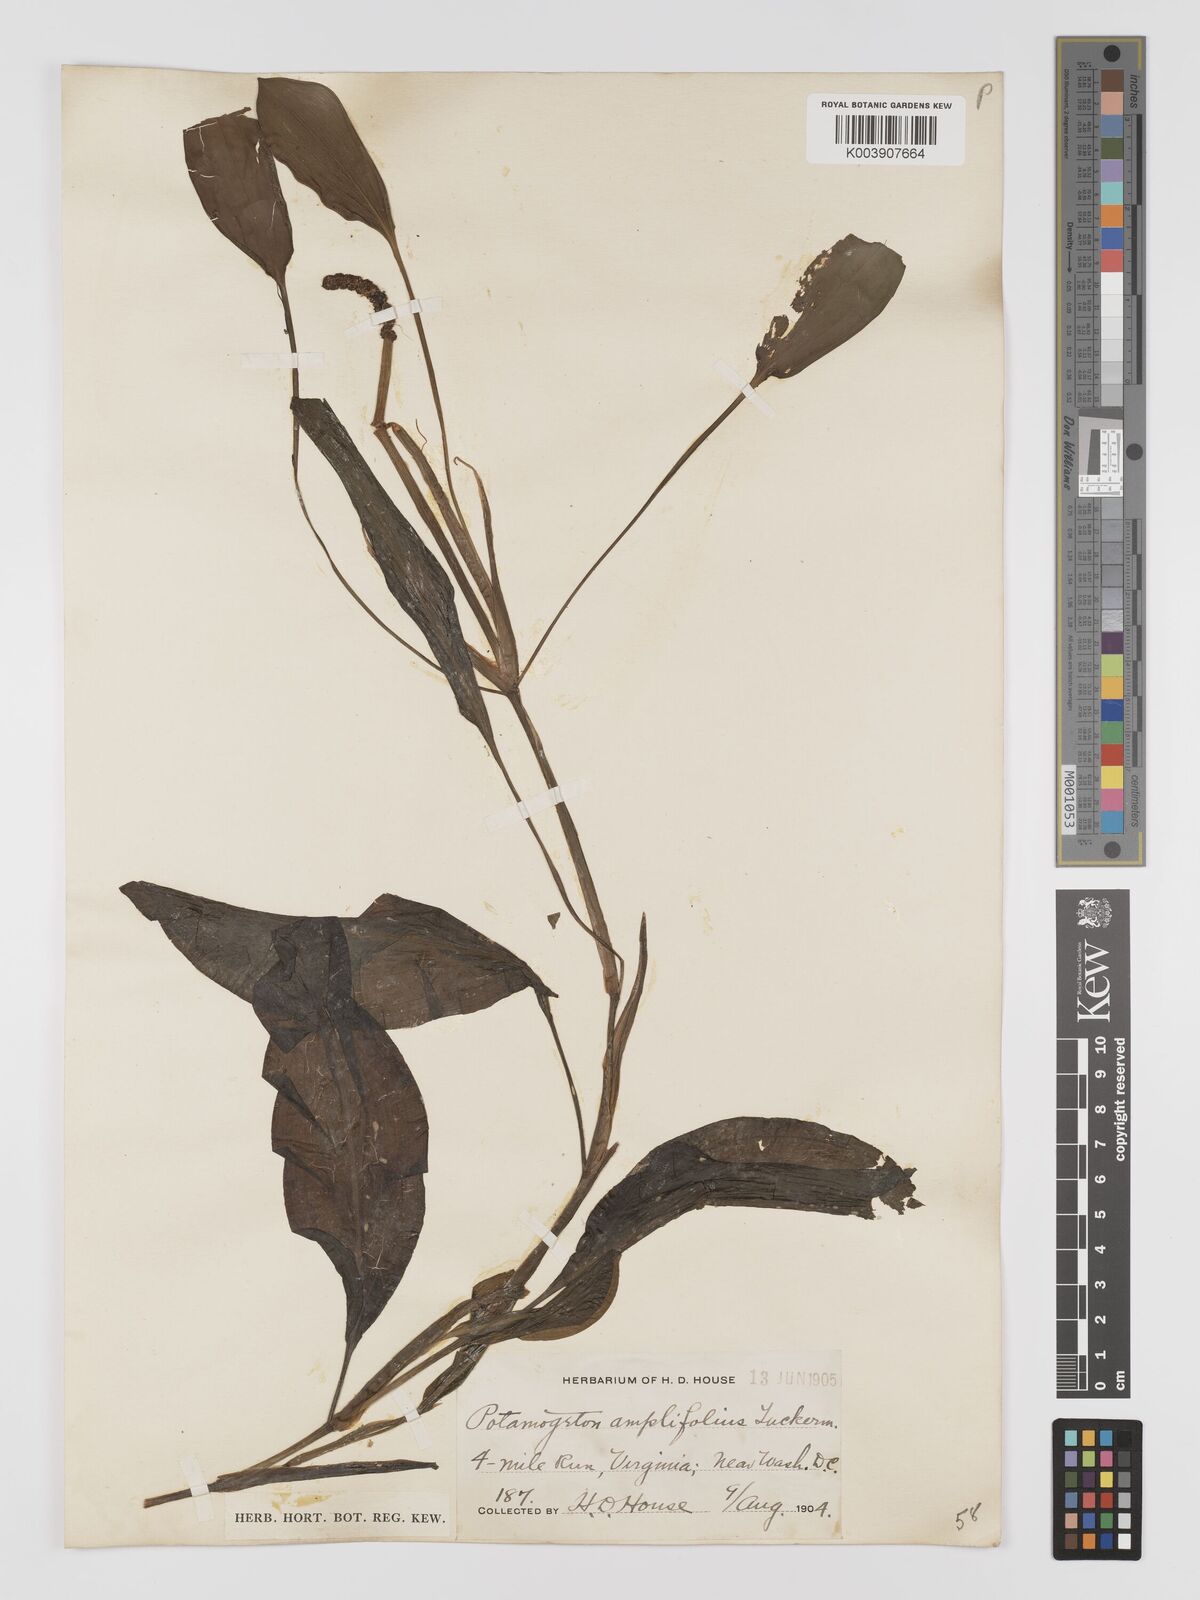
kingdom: Plantae
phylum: Tracheophyta
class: Liliopsida
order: Alismatales
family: Potamogetonaceae
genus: Potamogeton
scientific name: Potamogeton amplifolius
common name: Broad-leaved pondweed
